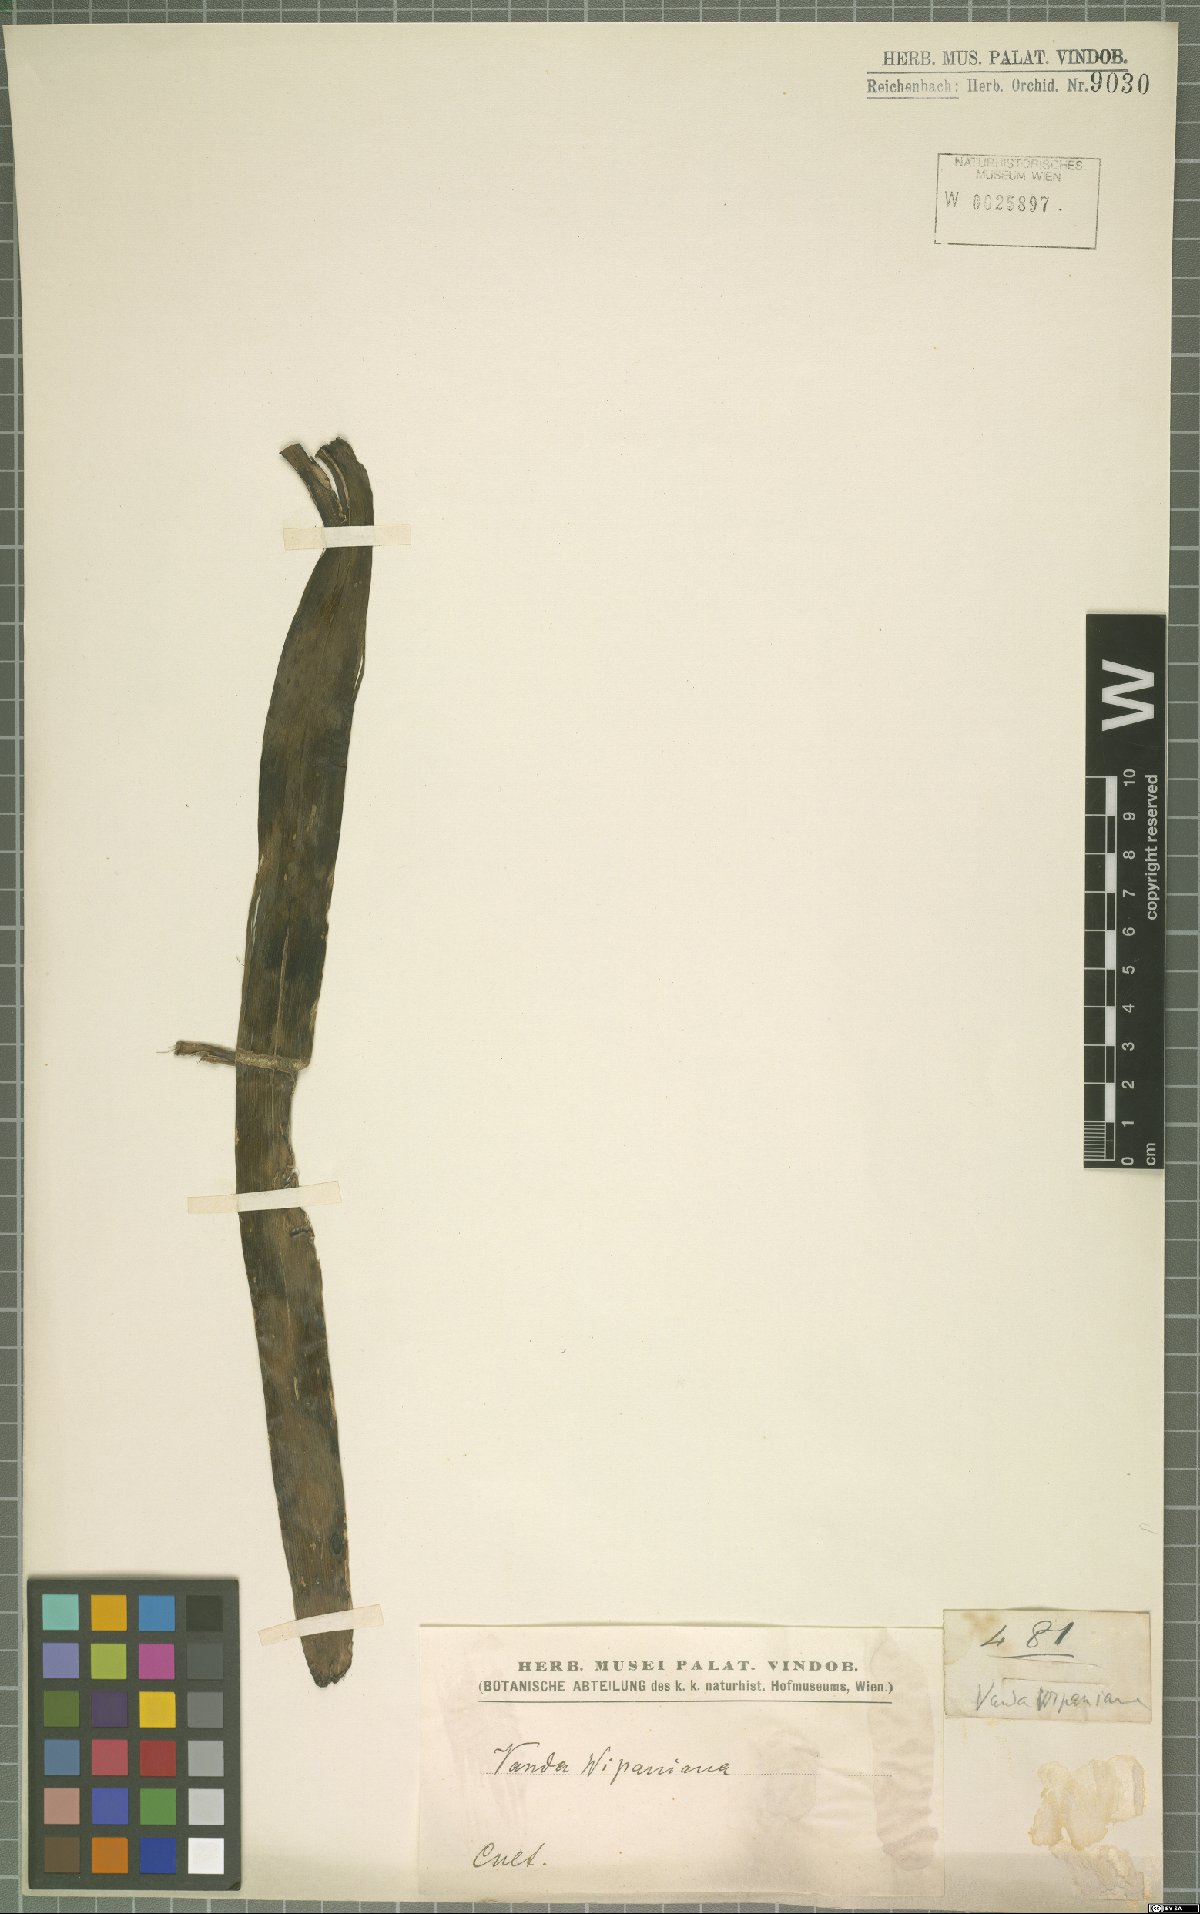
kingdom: Plantae
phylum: Tracheophyta
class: Liliopsida
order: Asparagales
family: Orchidaceae
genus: Vanda
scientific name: Vanda vipanii
